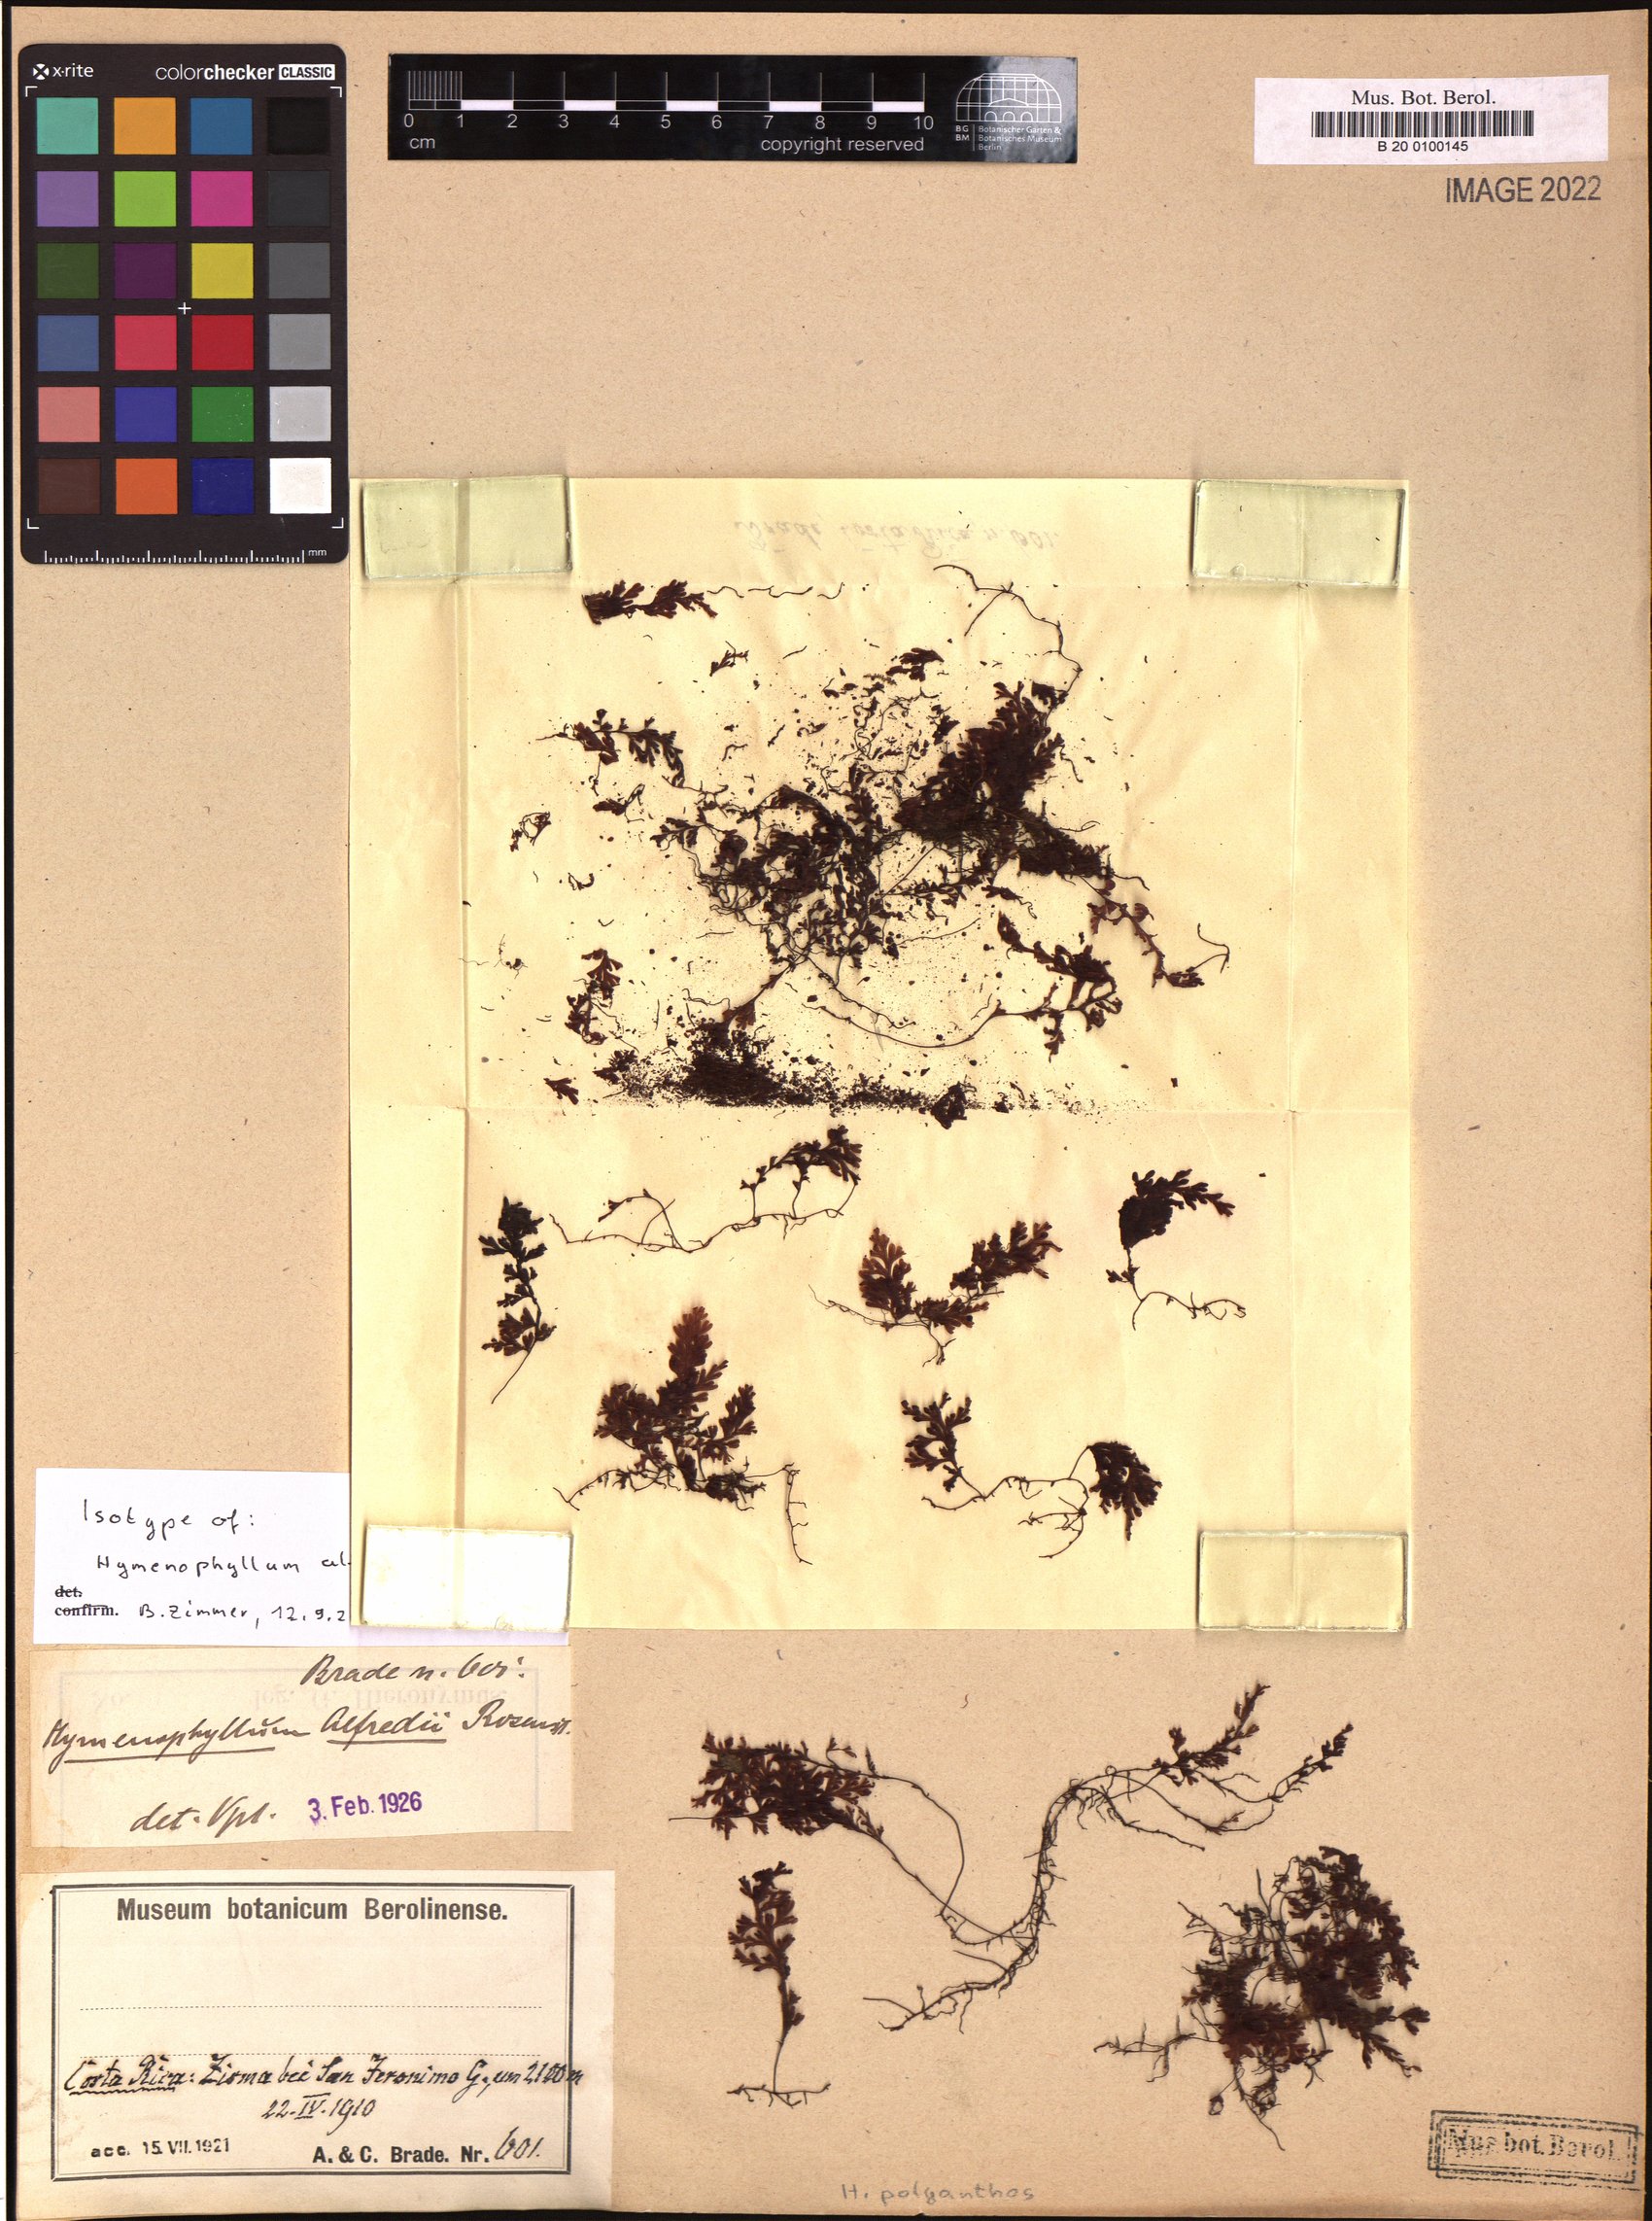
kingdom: Plantae
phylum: Tracheophyta
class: Polypodiopsida
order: Hymenophyllales
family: Hymenophyllaceae
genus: Hymenophyllum
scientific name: Hymenophyllum polyanthos
